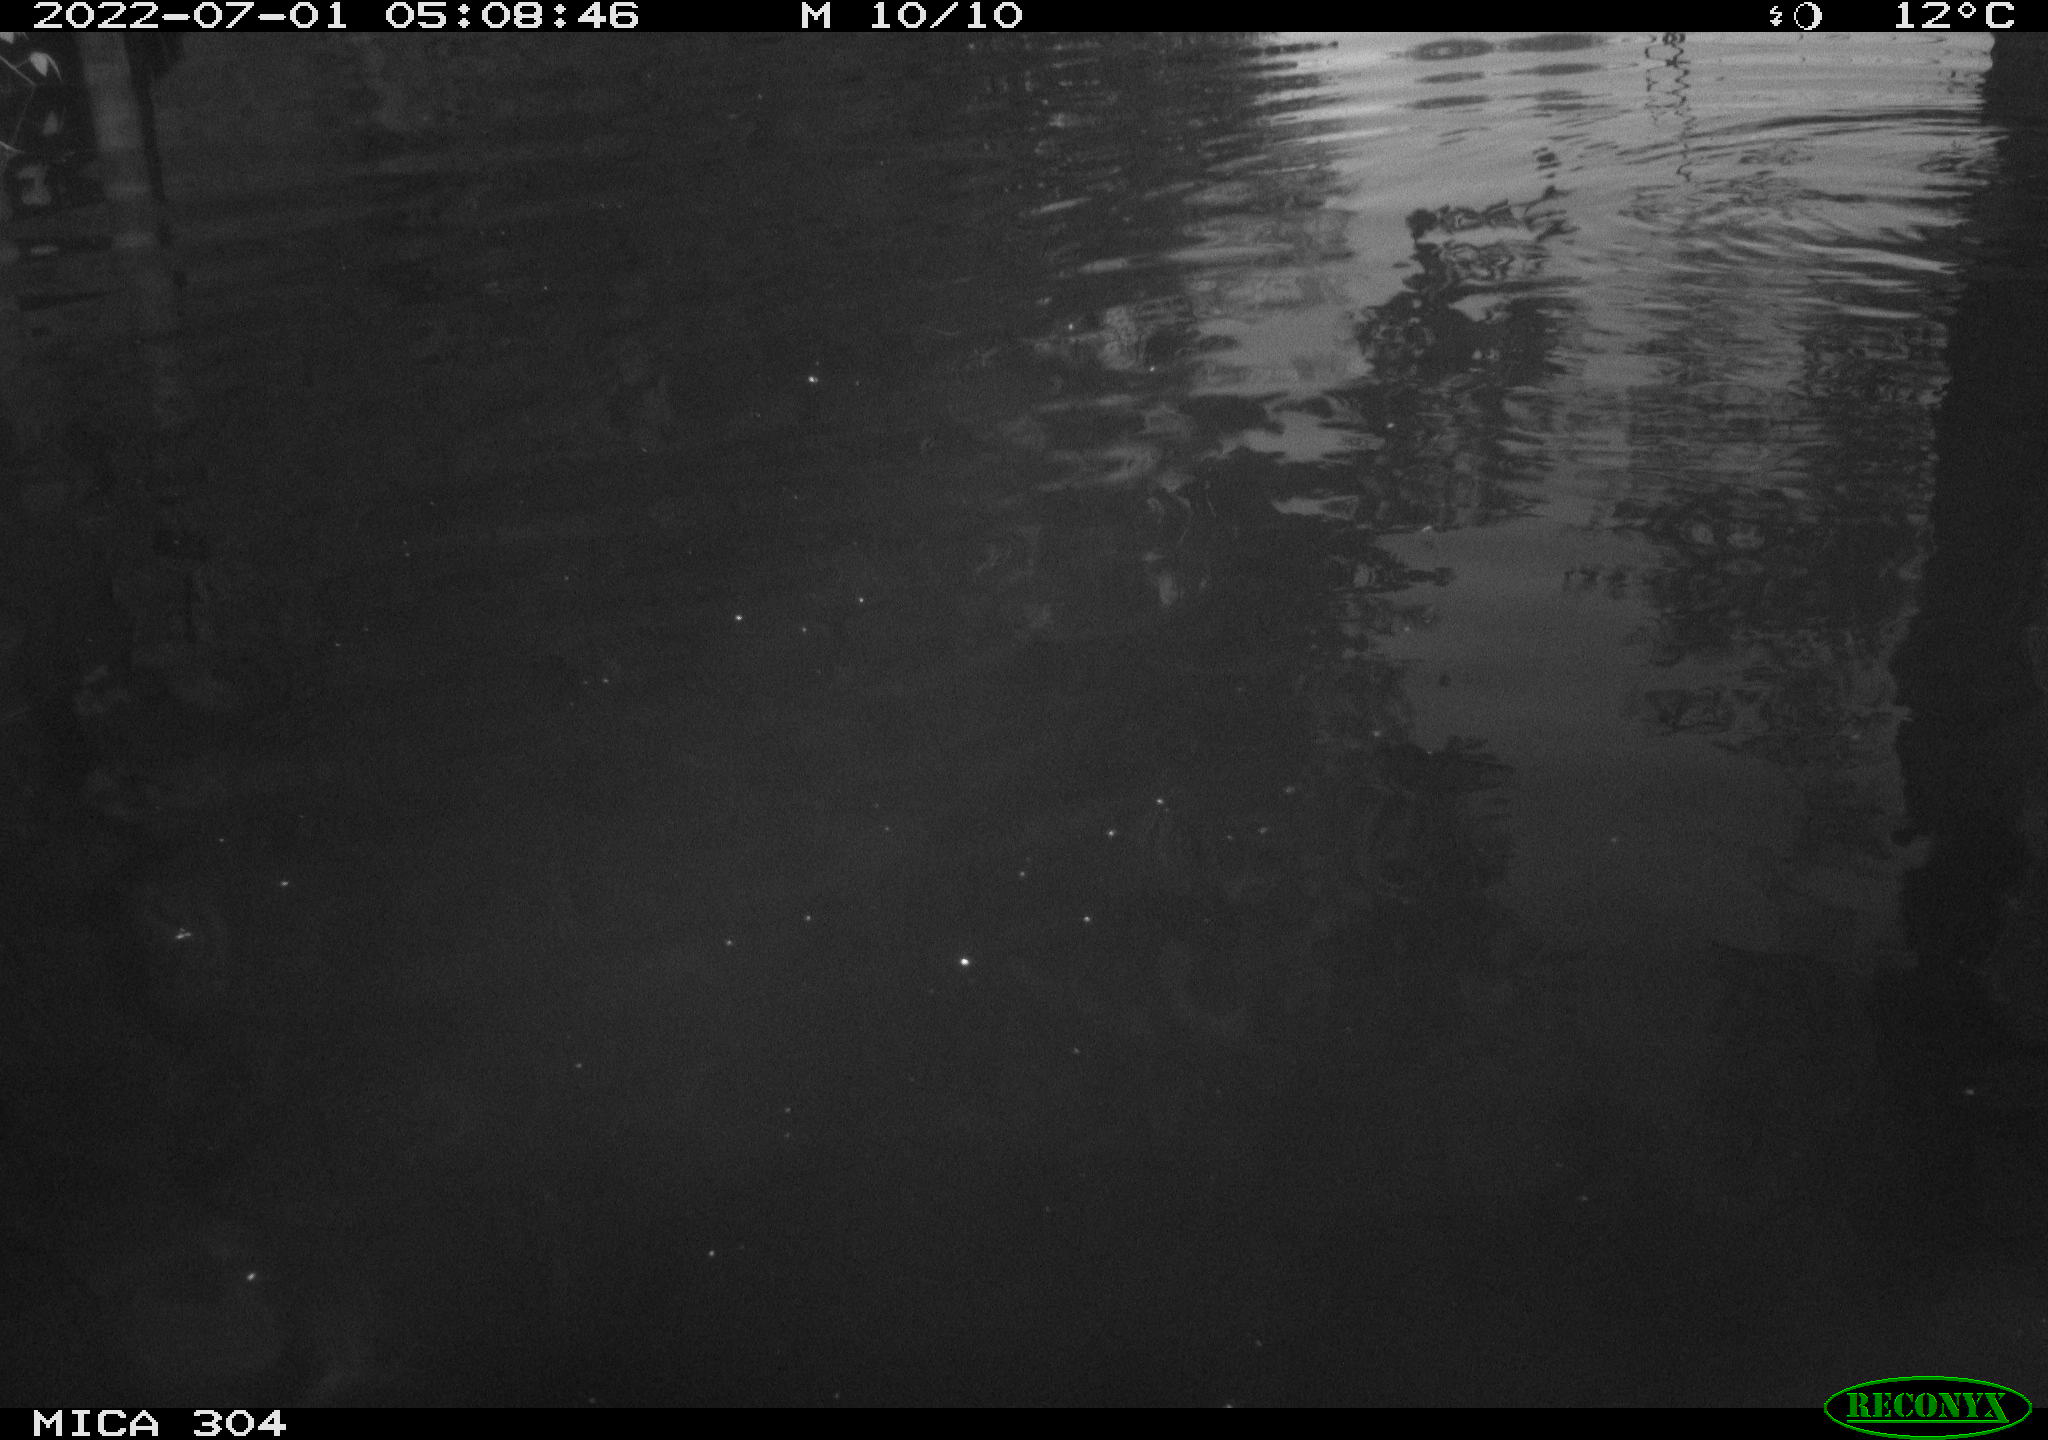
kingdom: Animalia
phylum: Chordata
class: Aves
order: Anseriformes
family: Anatidae
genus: Anas
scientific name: Anas platyrhynchos
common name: Mallard
